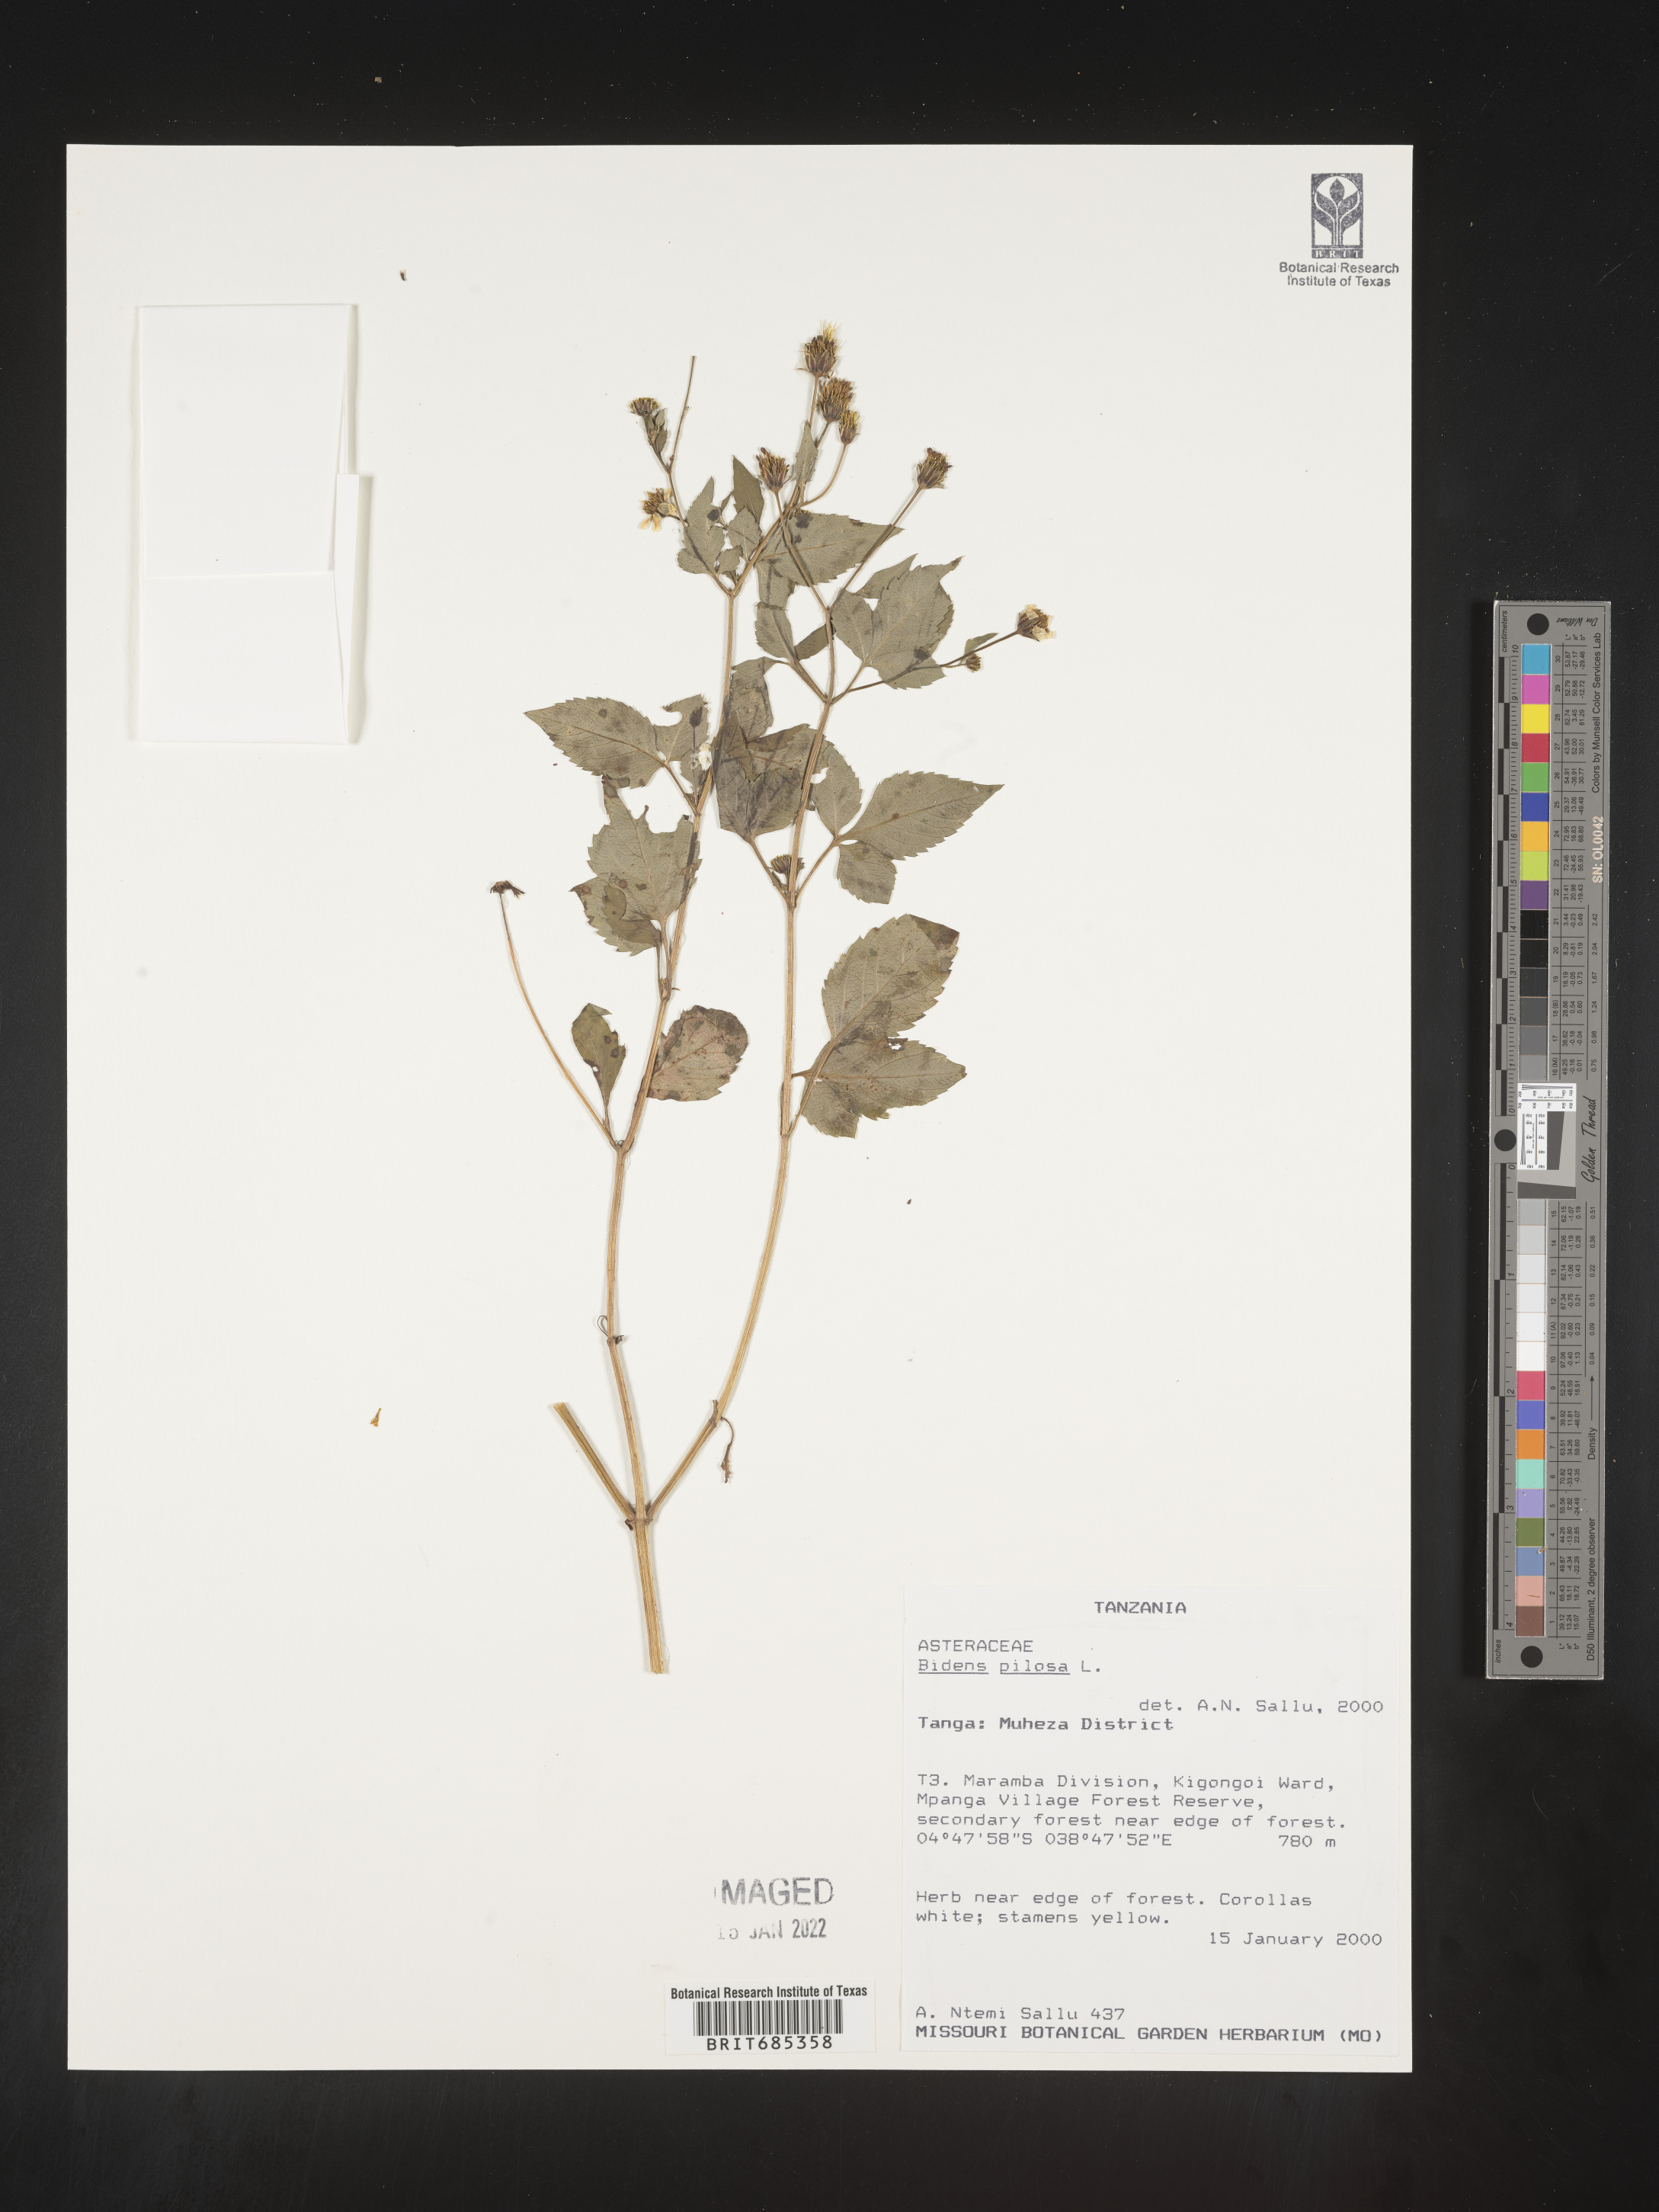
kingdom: Plantae
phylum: Tracheophyta
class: Magnoliopsida
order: Asterales
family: Asteraceae
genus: Bidens
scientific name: Bidens
